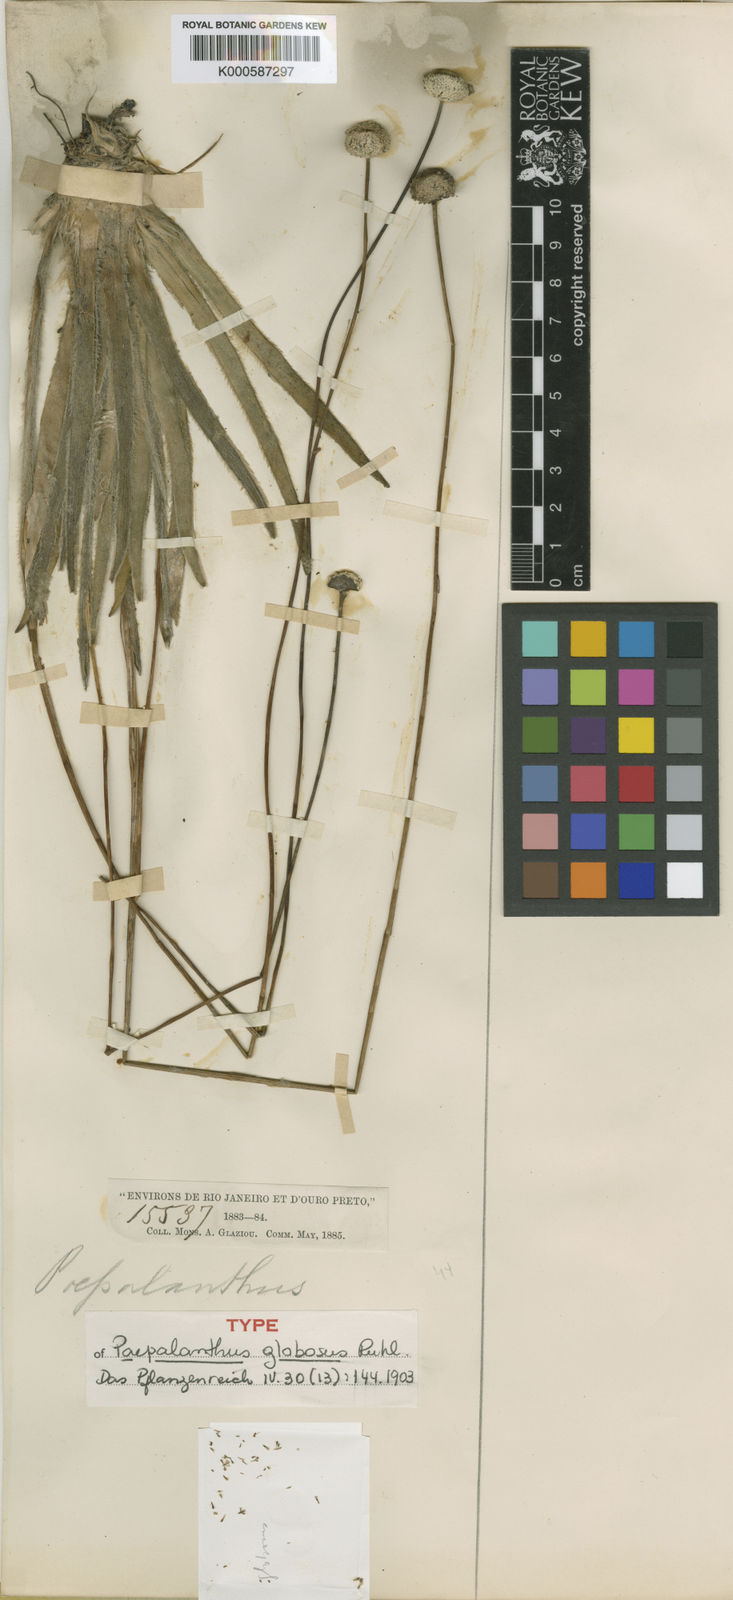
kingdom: Plantae
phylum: Tracheophyta
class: Liliopsida
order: Poales
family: Eriocaulaceae
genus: Paepalanthus
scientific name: Paepalanthus globosus
